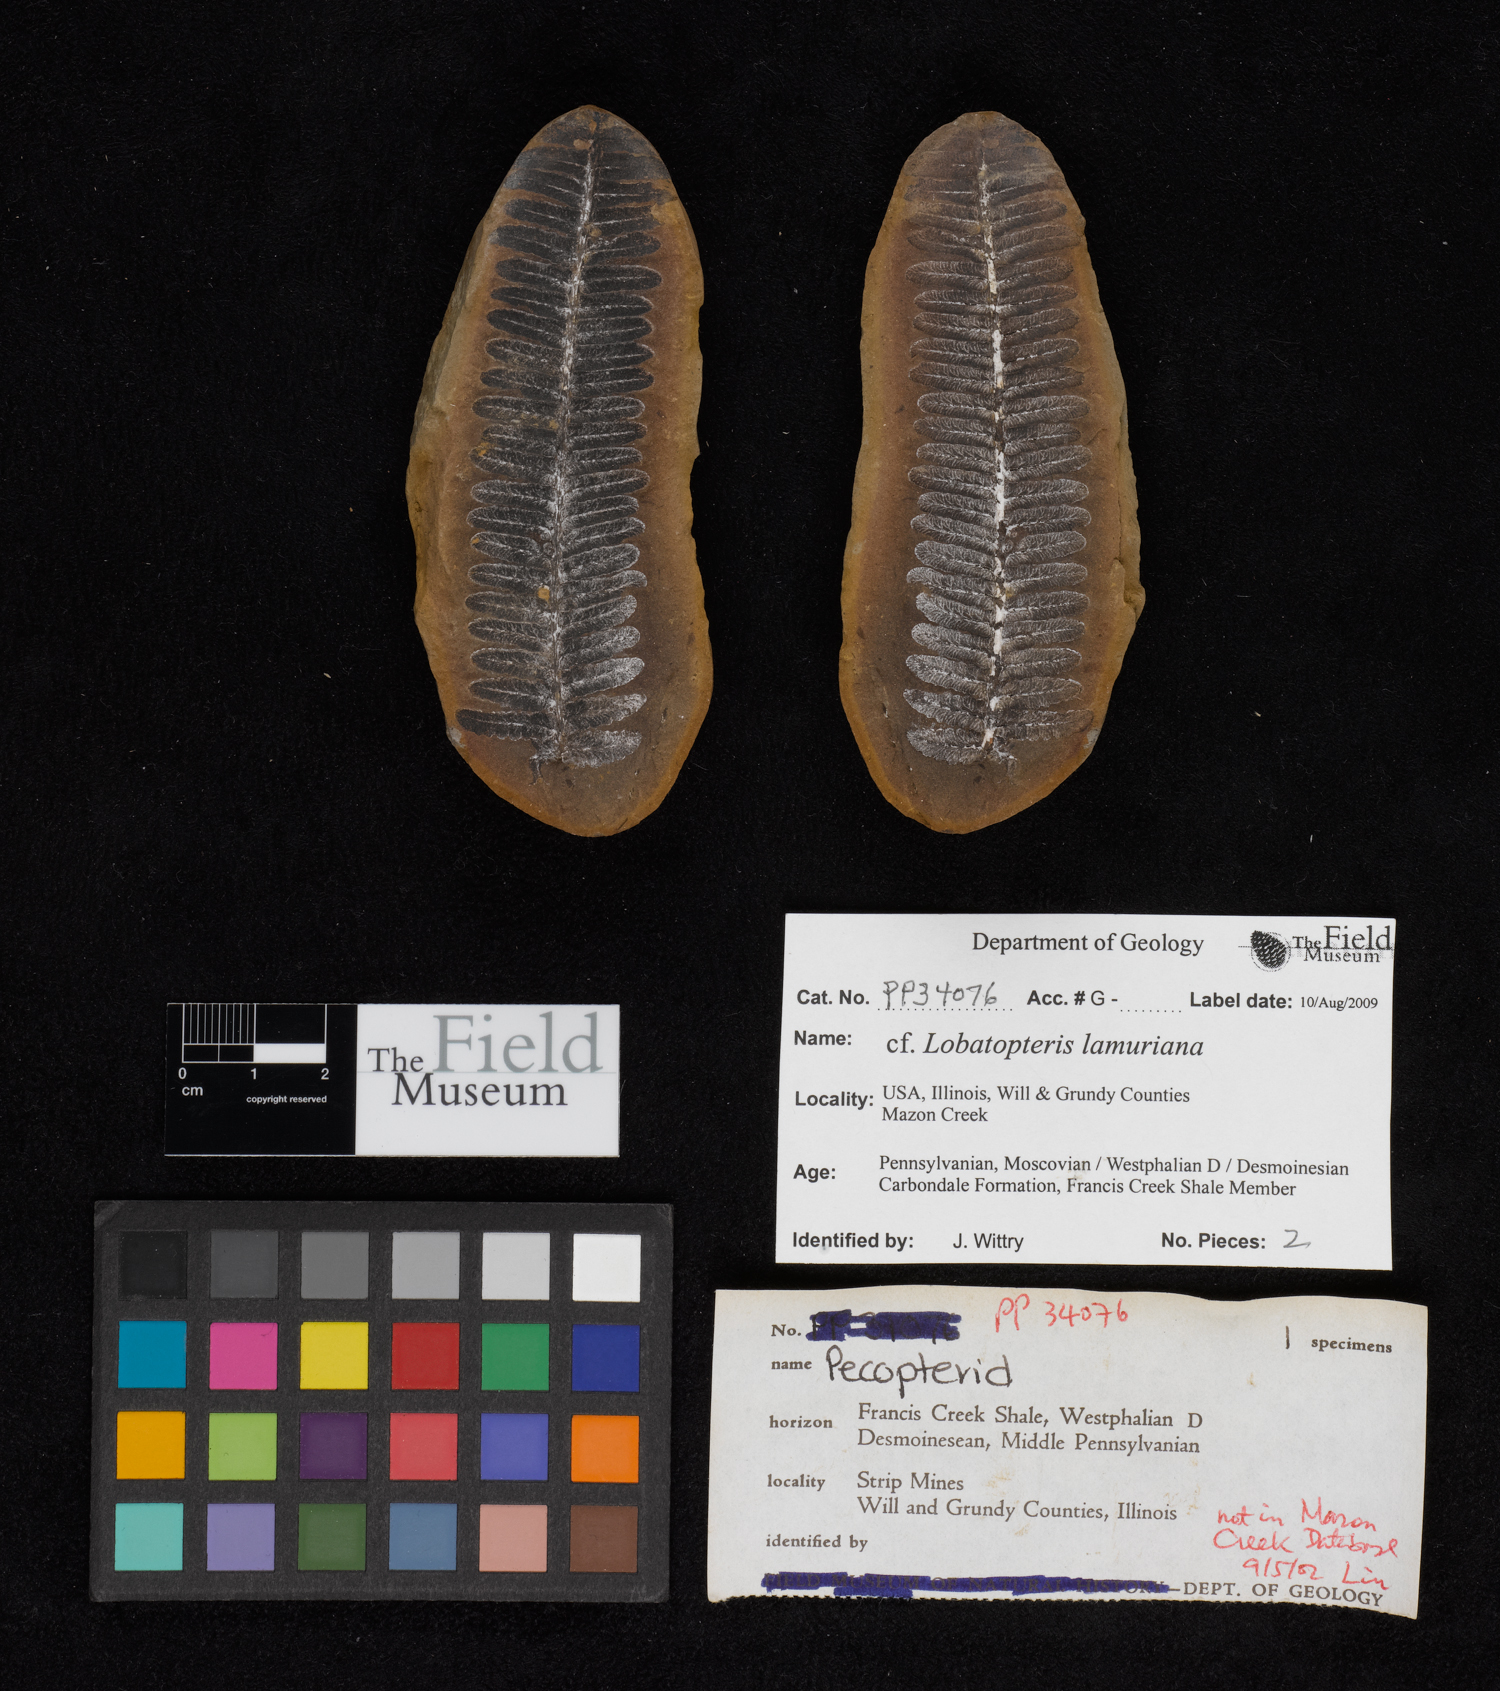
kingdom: Plantae
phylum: Tracheophyta
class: Polypodiopsida
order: Marattiales
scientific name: Marattiales
